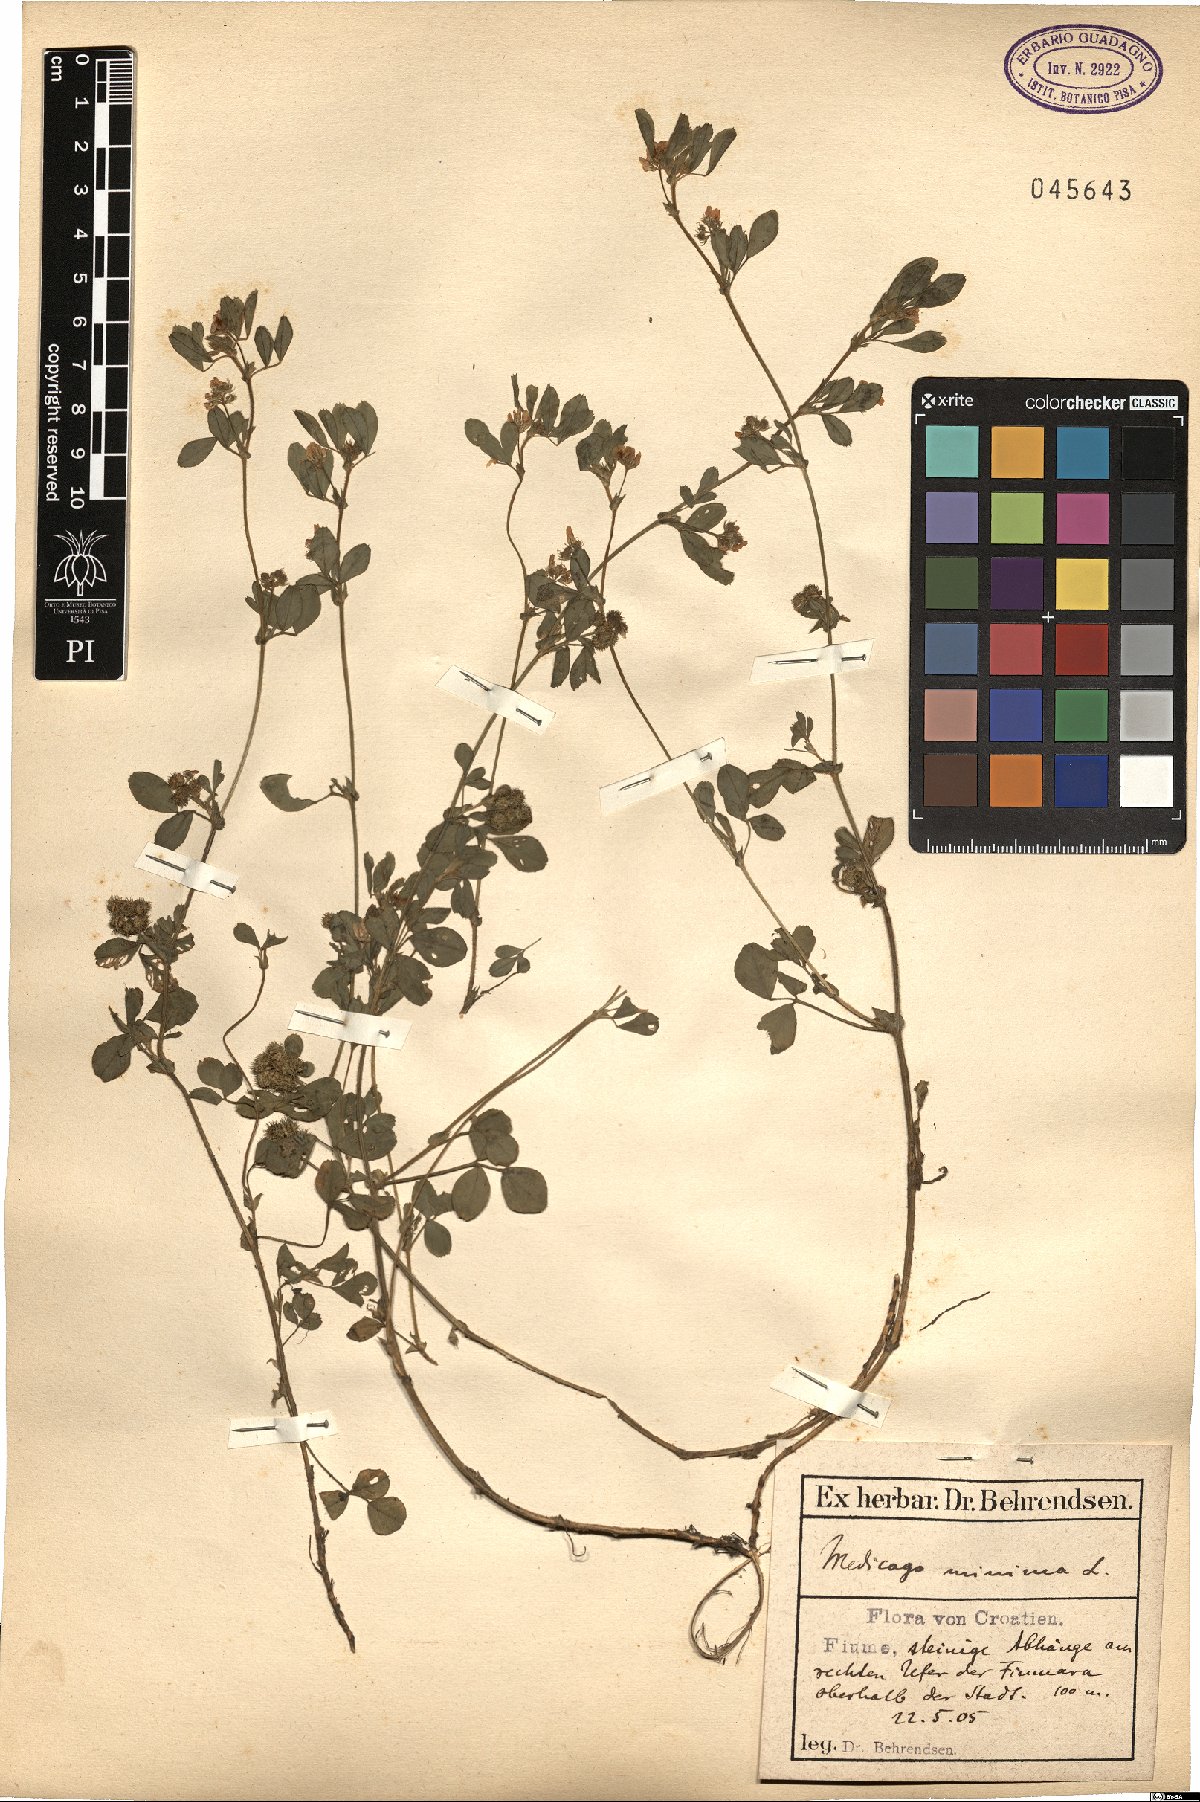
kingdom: Plantae
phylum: Tracheophyta
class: Magnoliopsida
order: Fabales
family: Fabaceae
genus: Medicago
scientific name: Medicago minima
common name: Little bur-clover
